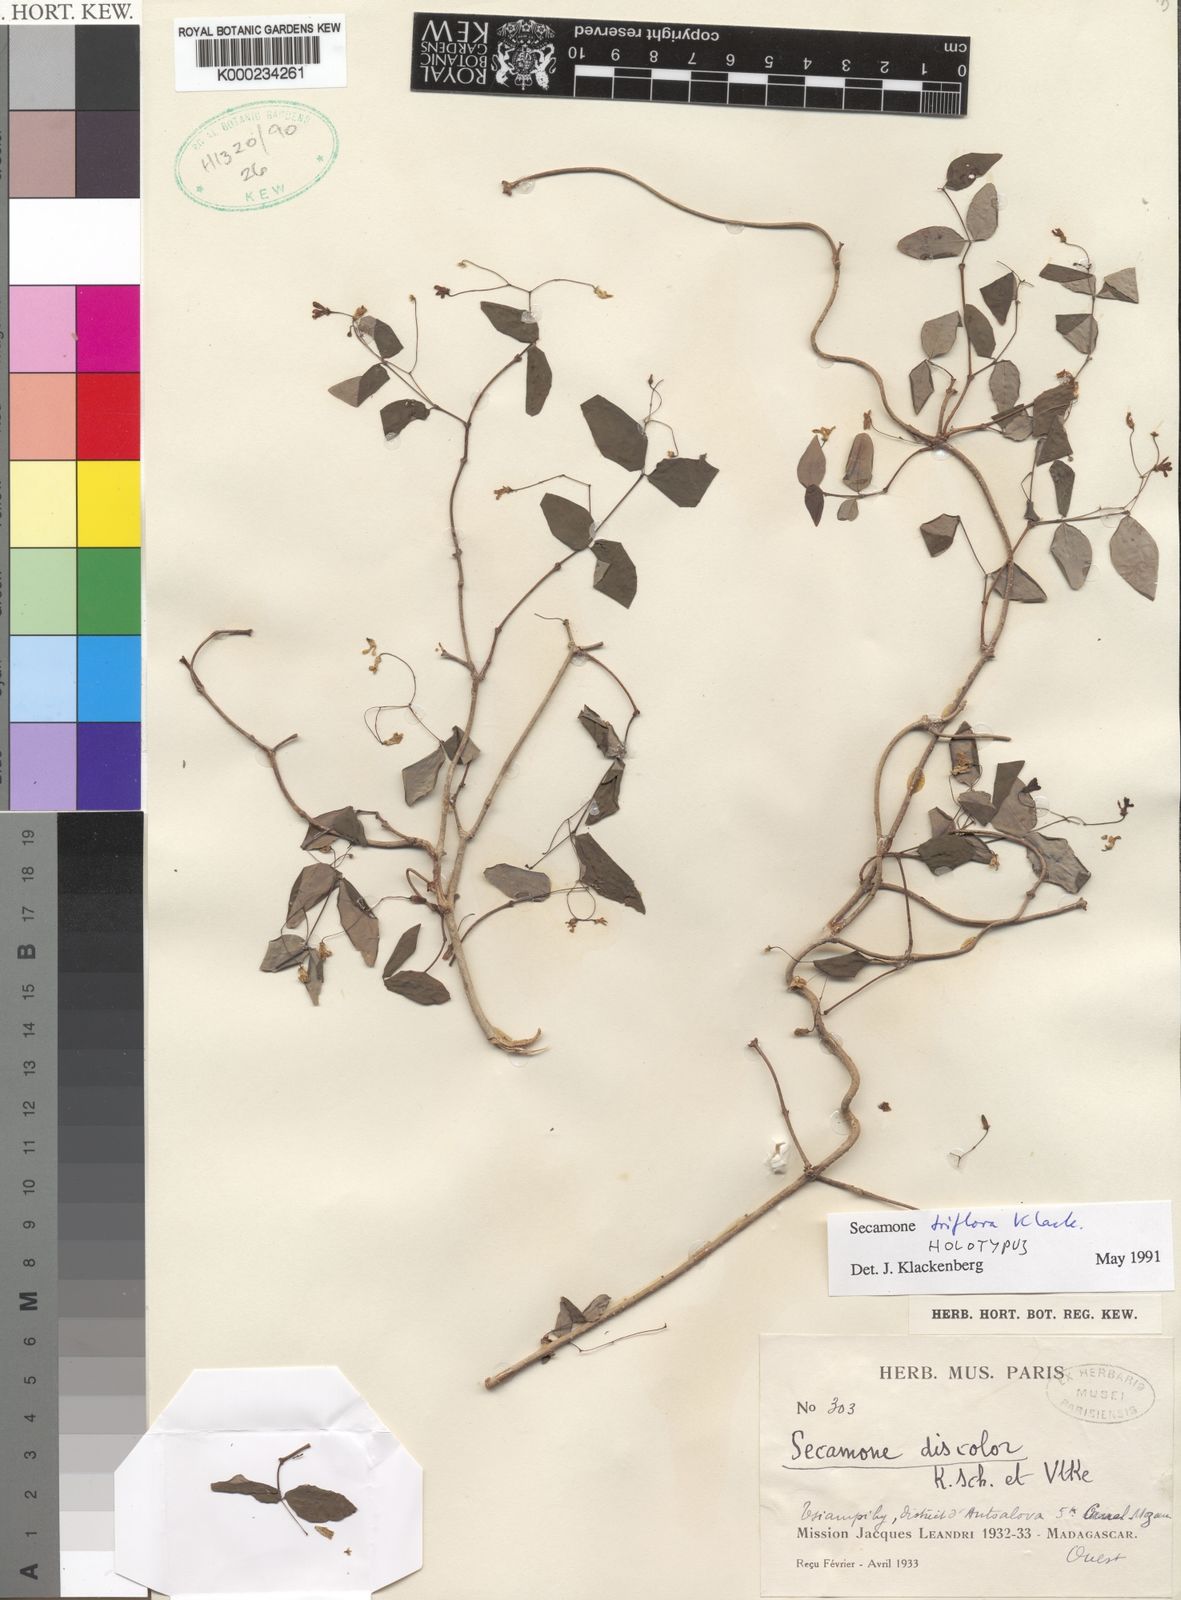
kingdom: Plantae
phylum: Tracheophyta
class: Magnoliopsida
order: Gentianales
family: Apocynaceae
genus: Secamone
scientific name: Secamone triflora
